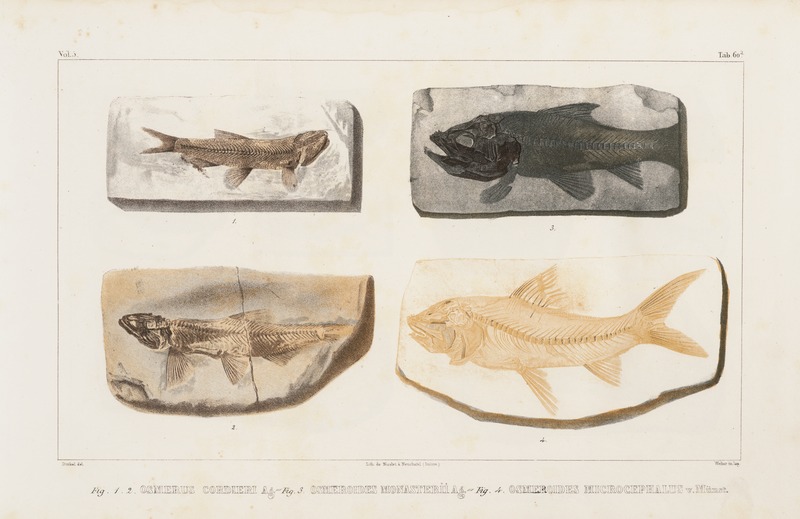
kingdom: Animalia
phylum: Chordata
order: Myctophiformes
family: Sardinoididae
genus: Sardinioides
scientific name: Sardinioides Osmeroides monasterii
